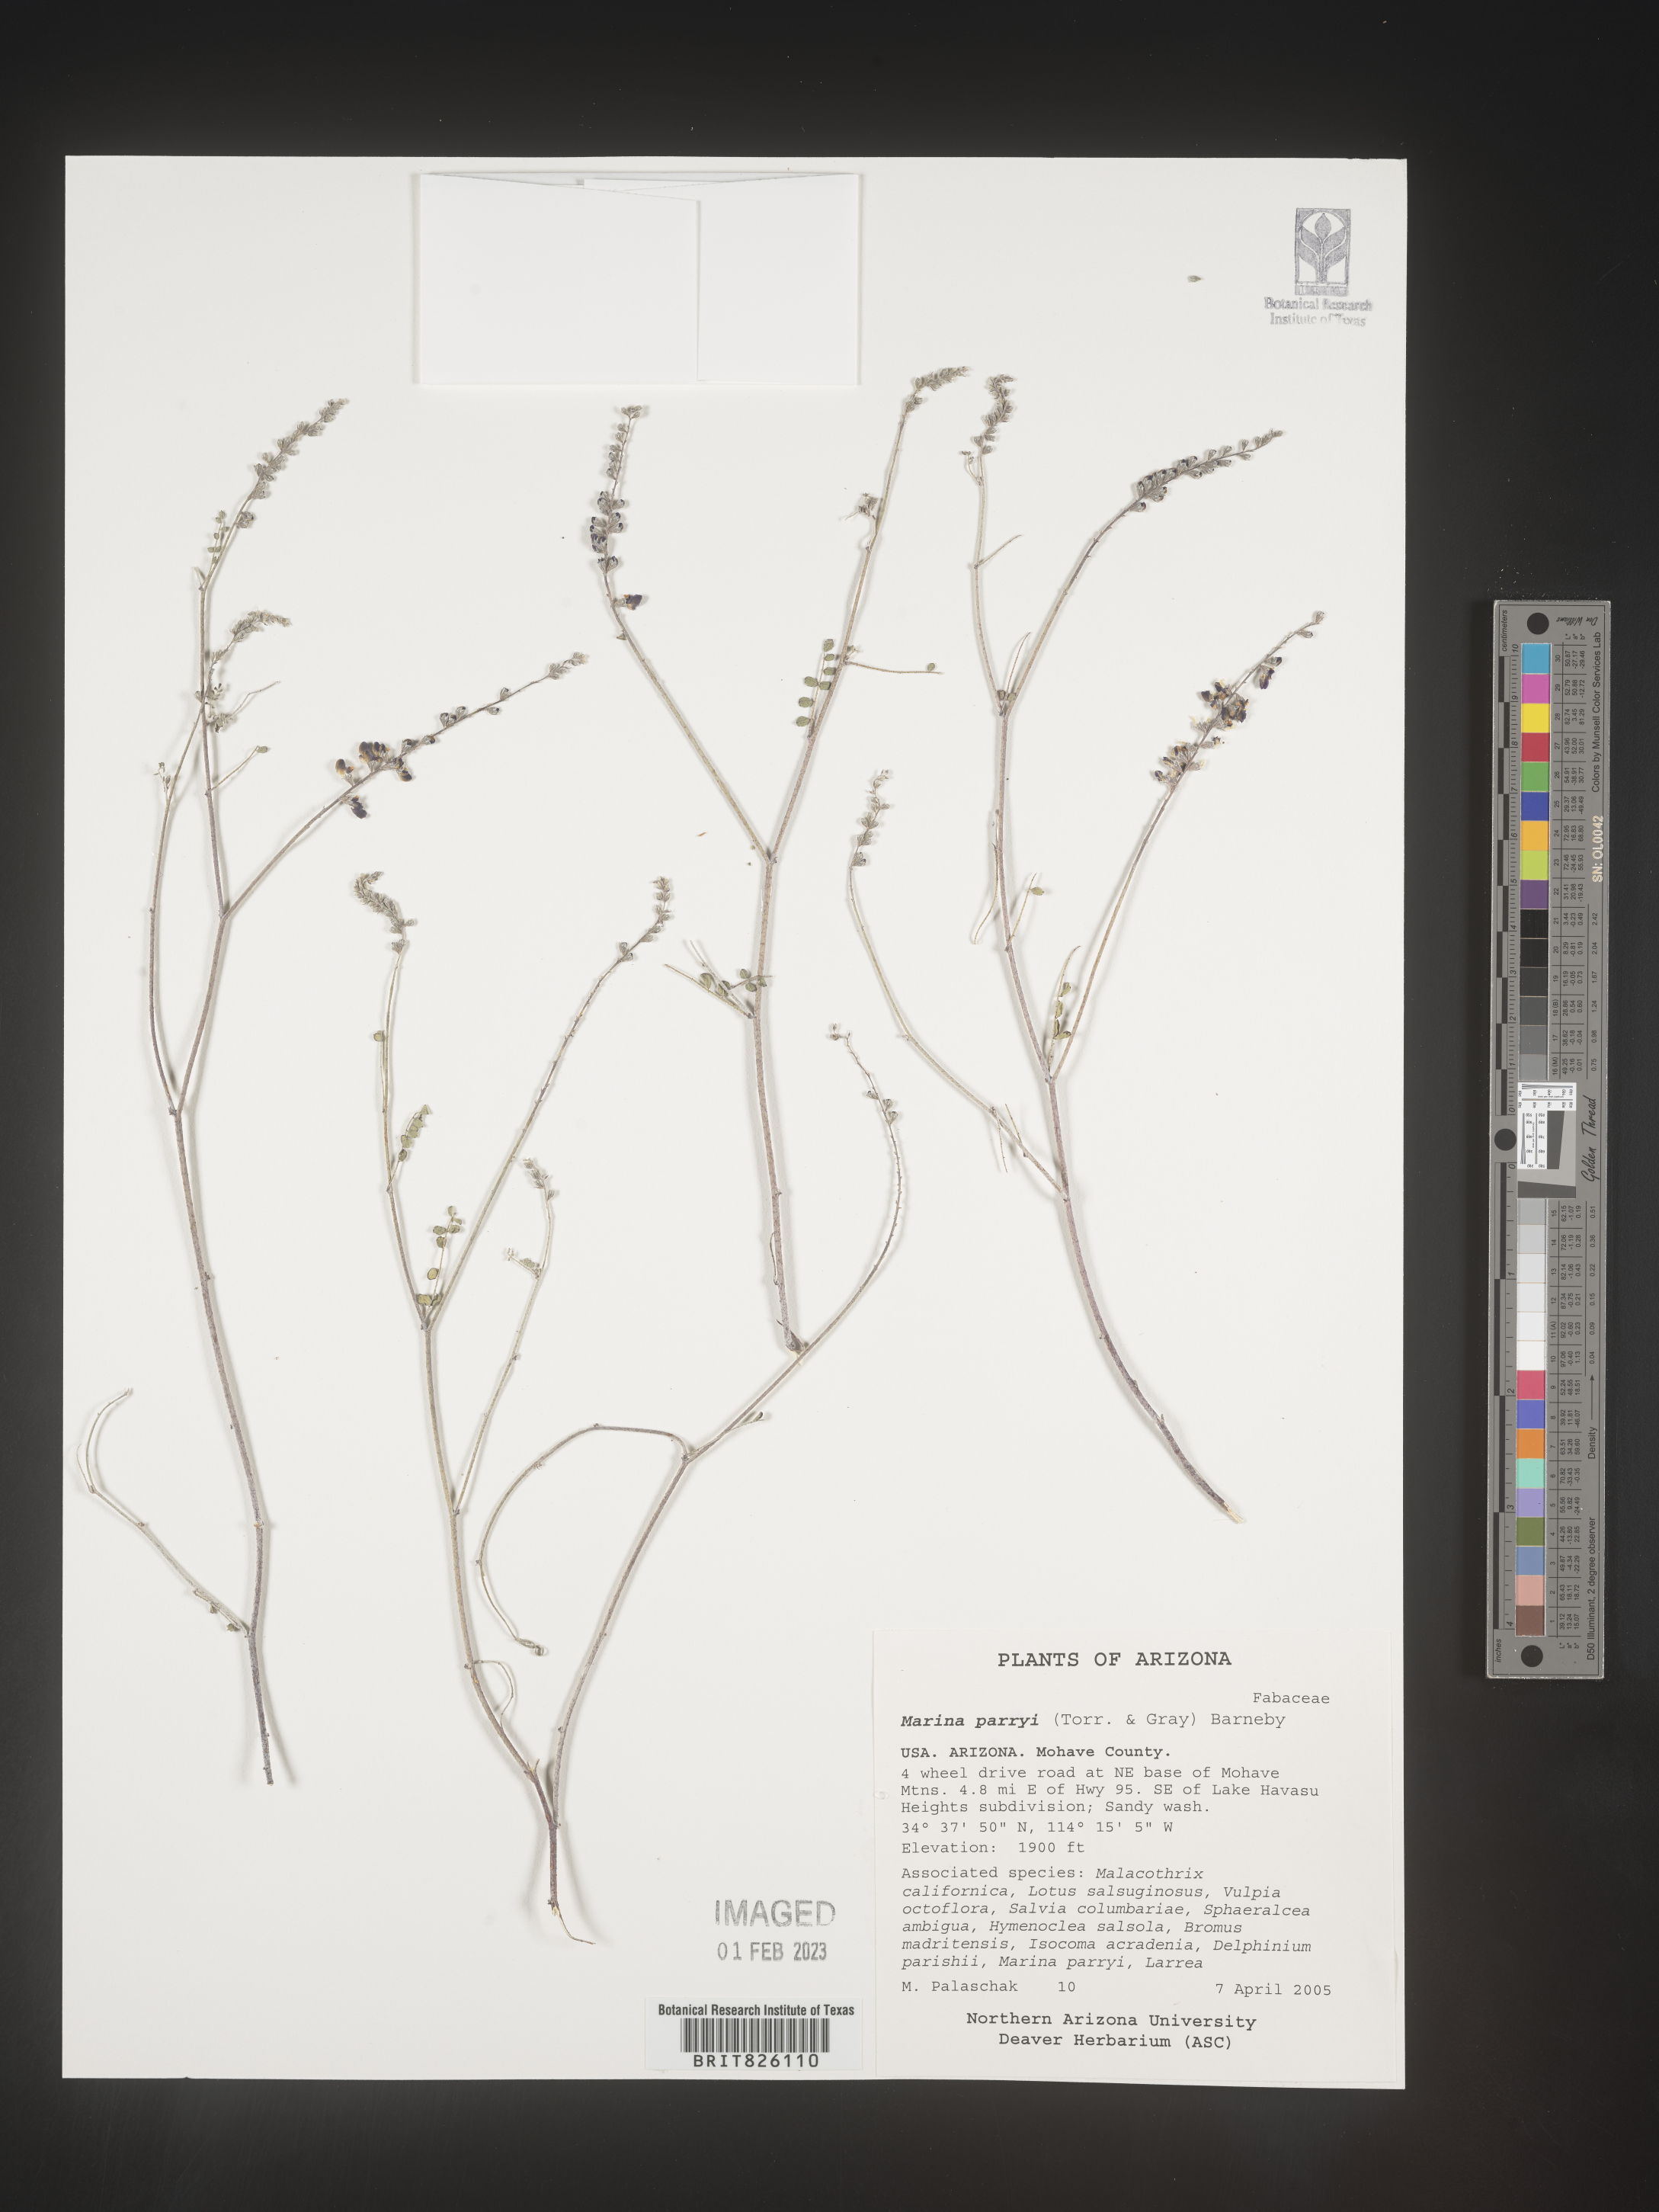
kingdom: Plantae
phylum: Tracheophyta
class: Magnoliopsida
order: Fabales
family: Fabaceae
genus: Marina
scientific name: Marina
